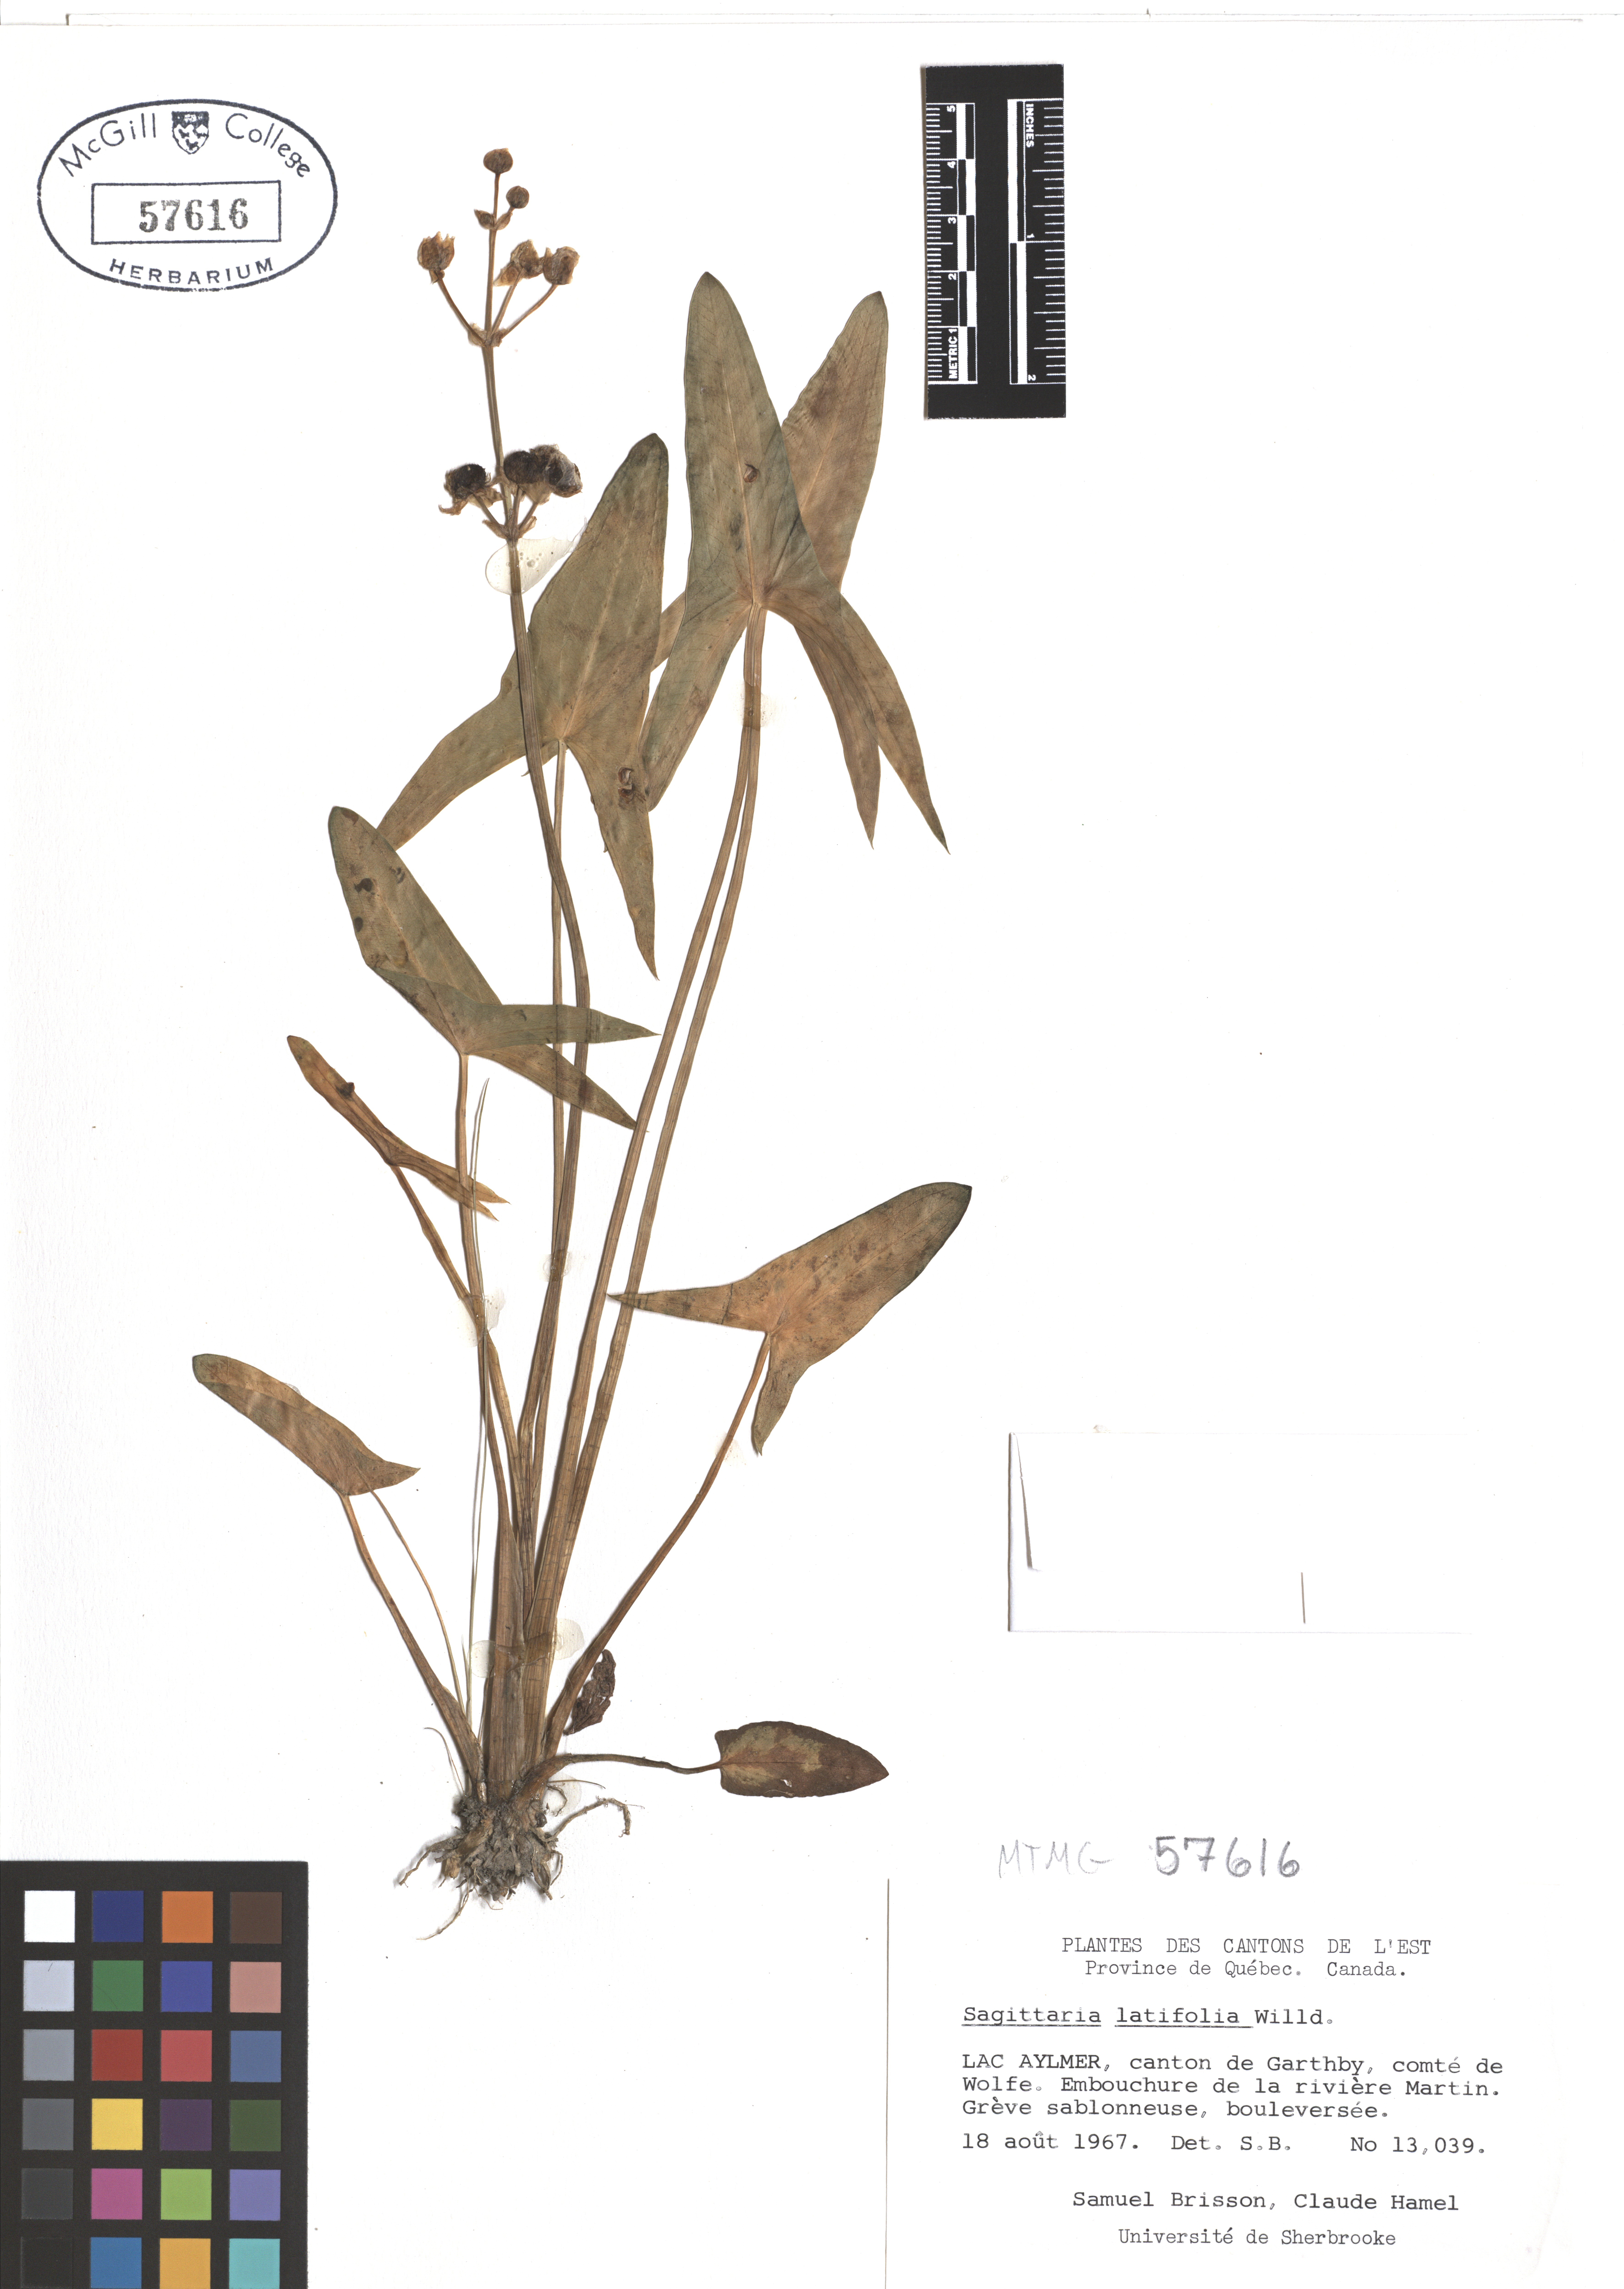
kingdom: Plantae
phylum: Tracheophyta
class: Liliopsida
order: Alismatales
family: Alismataceae
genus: Sagittaria
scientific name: Sagittaria latifolia
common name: Duck-potato
